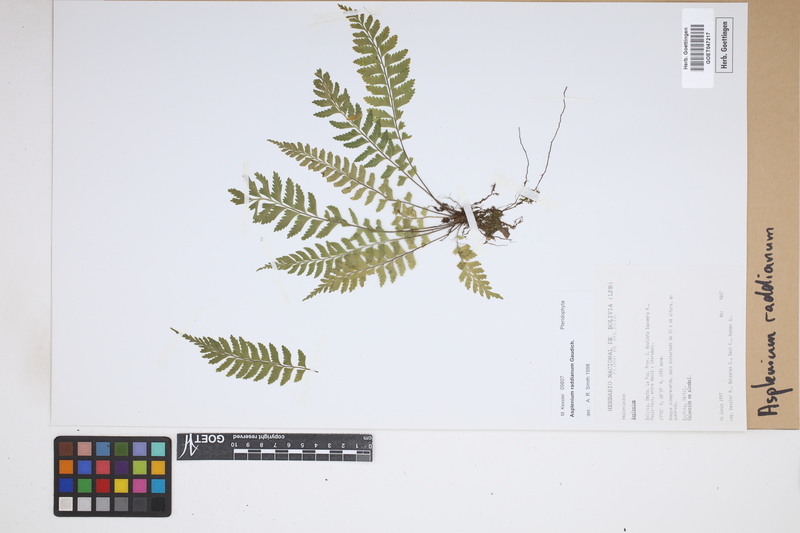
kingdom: Plantae
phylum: Tracheophyta
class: Polypodiopsida
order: Polypodiales
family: Aspleniaceae
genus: Asplenium
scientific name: Asplenium raddianum
